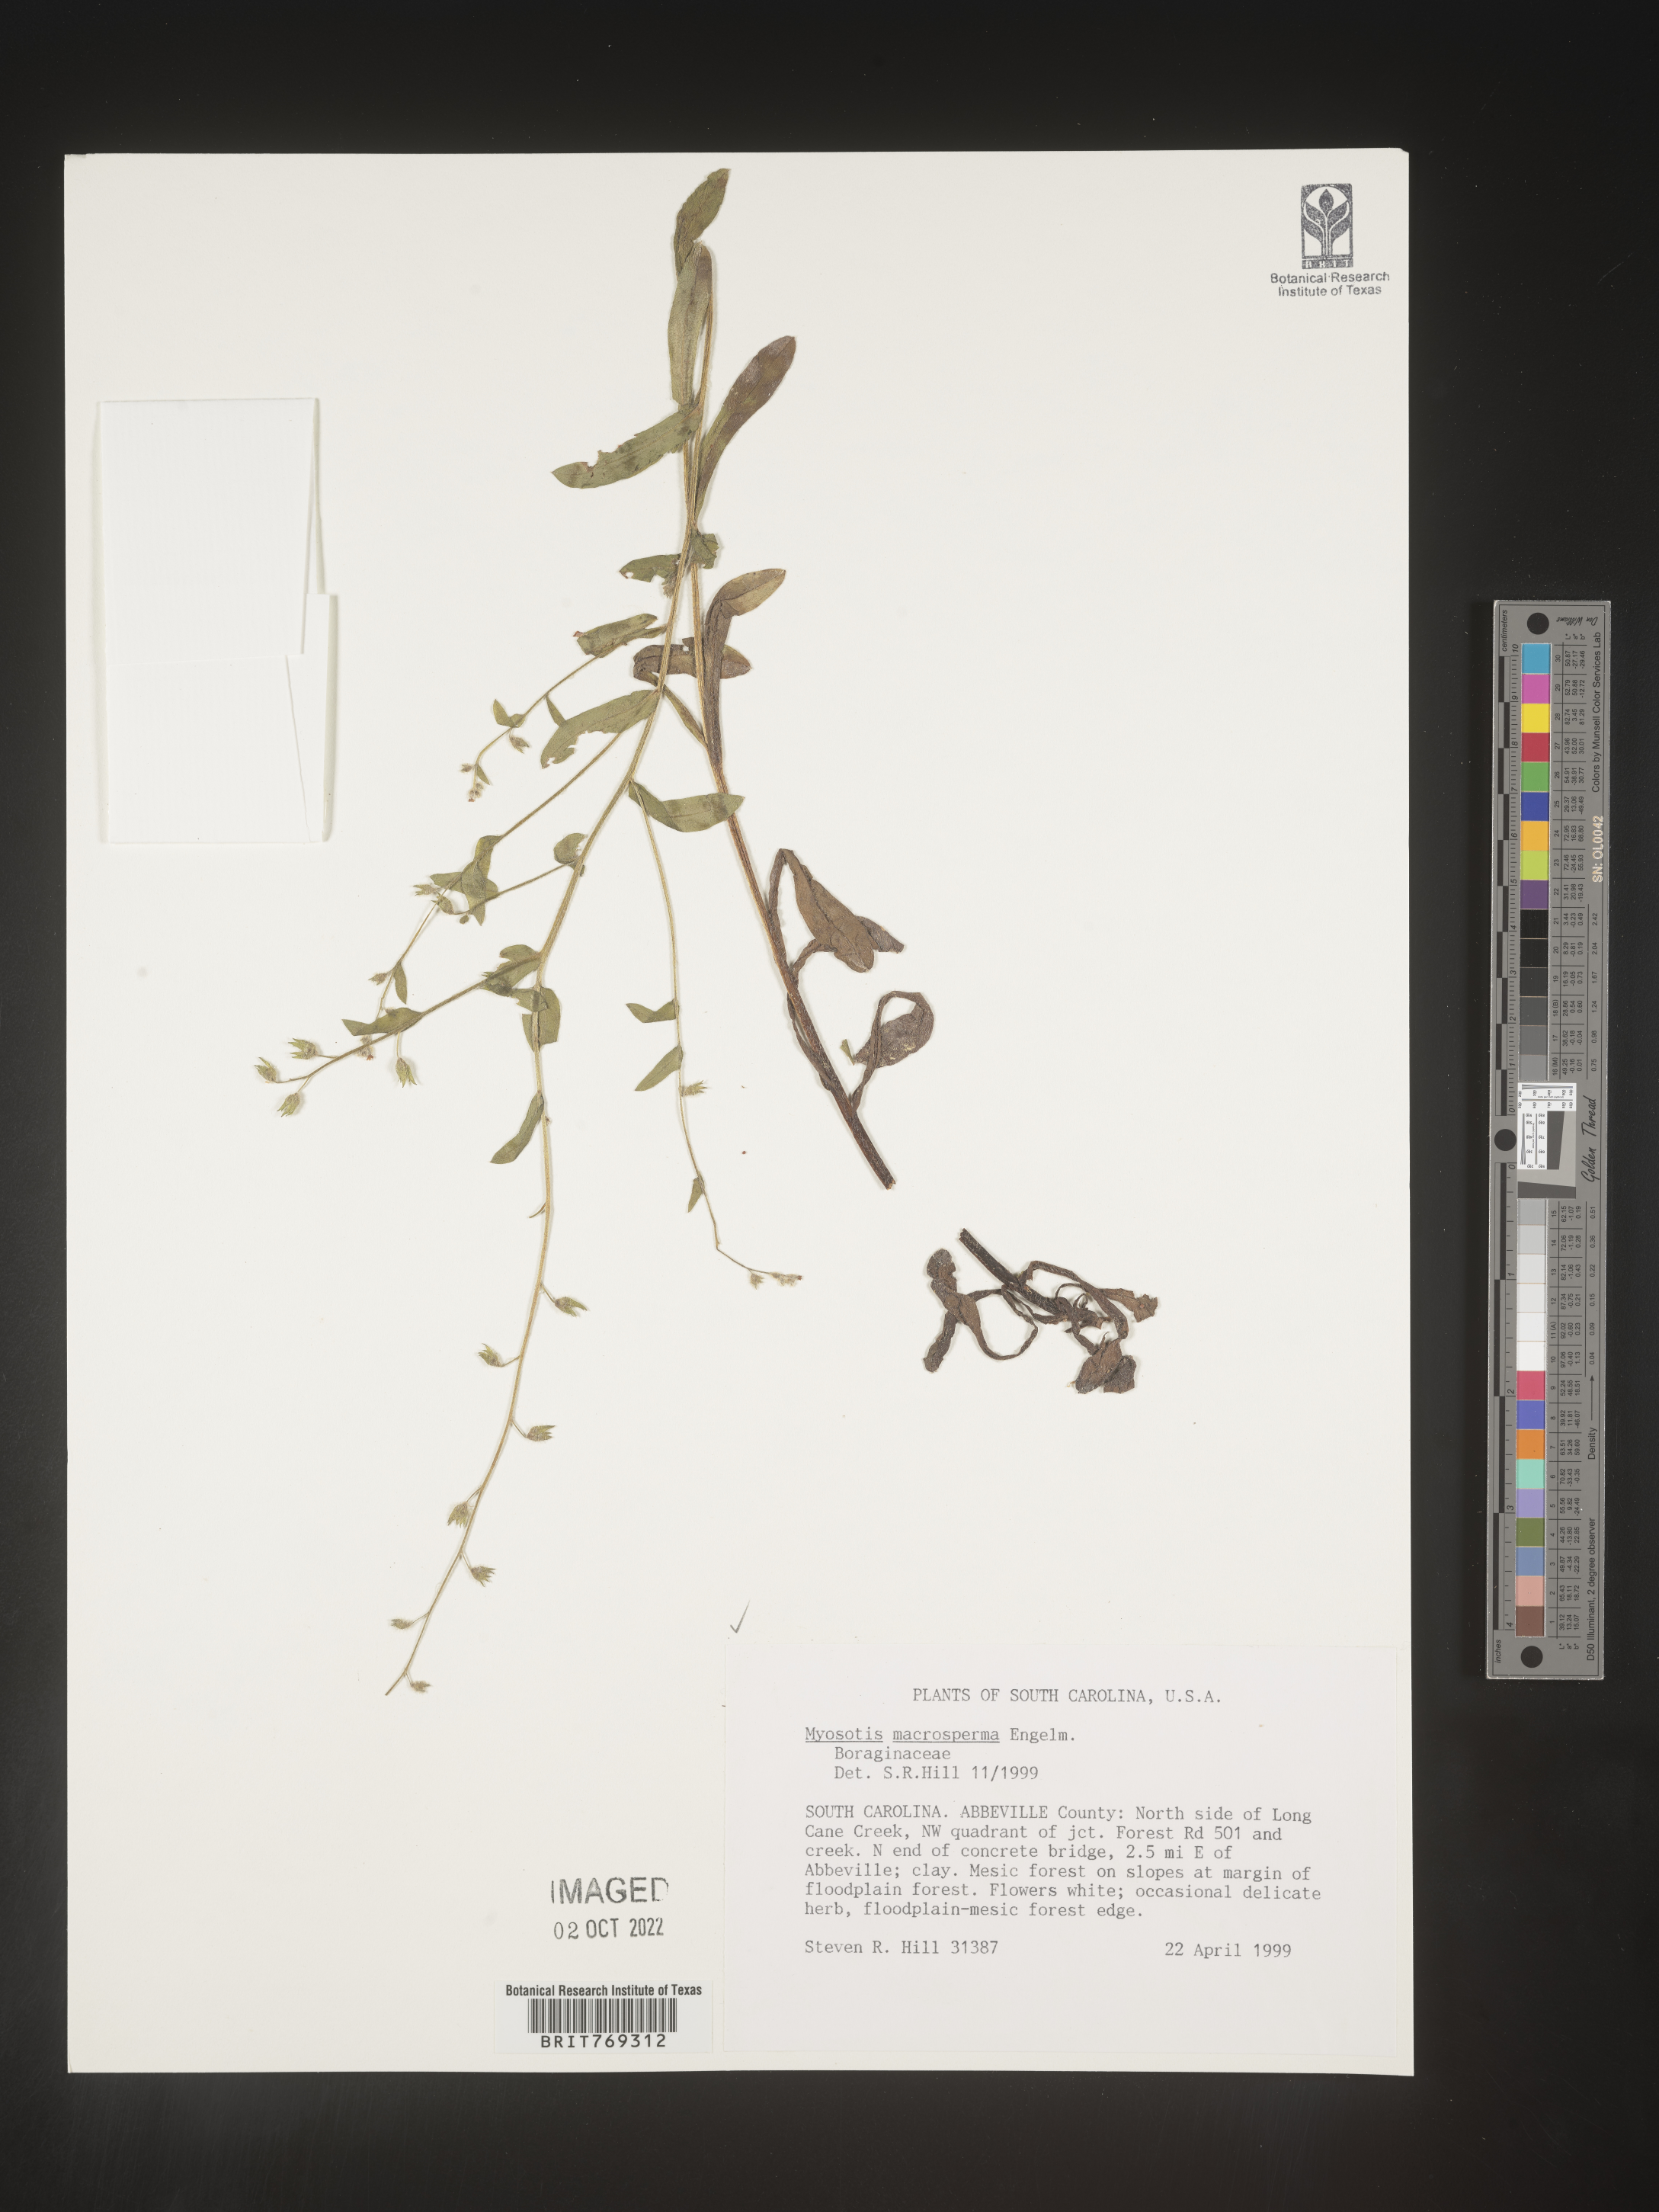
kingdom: Plantae
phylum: Tracheophyta
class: Magnoliopsida
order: Boraginales
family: Boraginaceae
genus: Myosotis
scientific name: Myosotis macrosperma
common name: Large-seed forget-me-not
